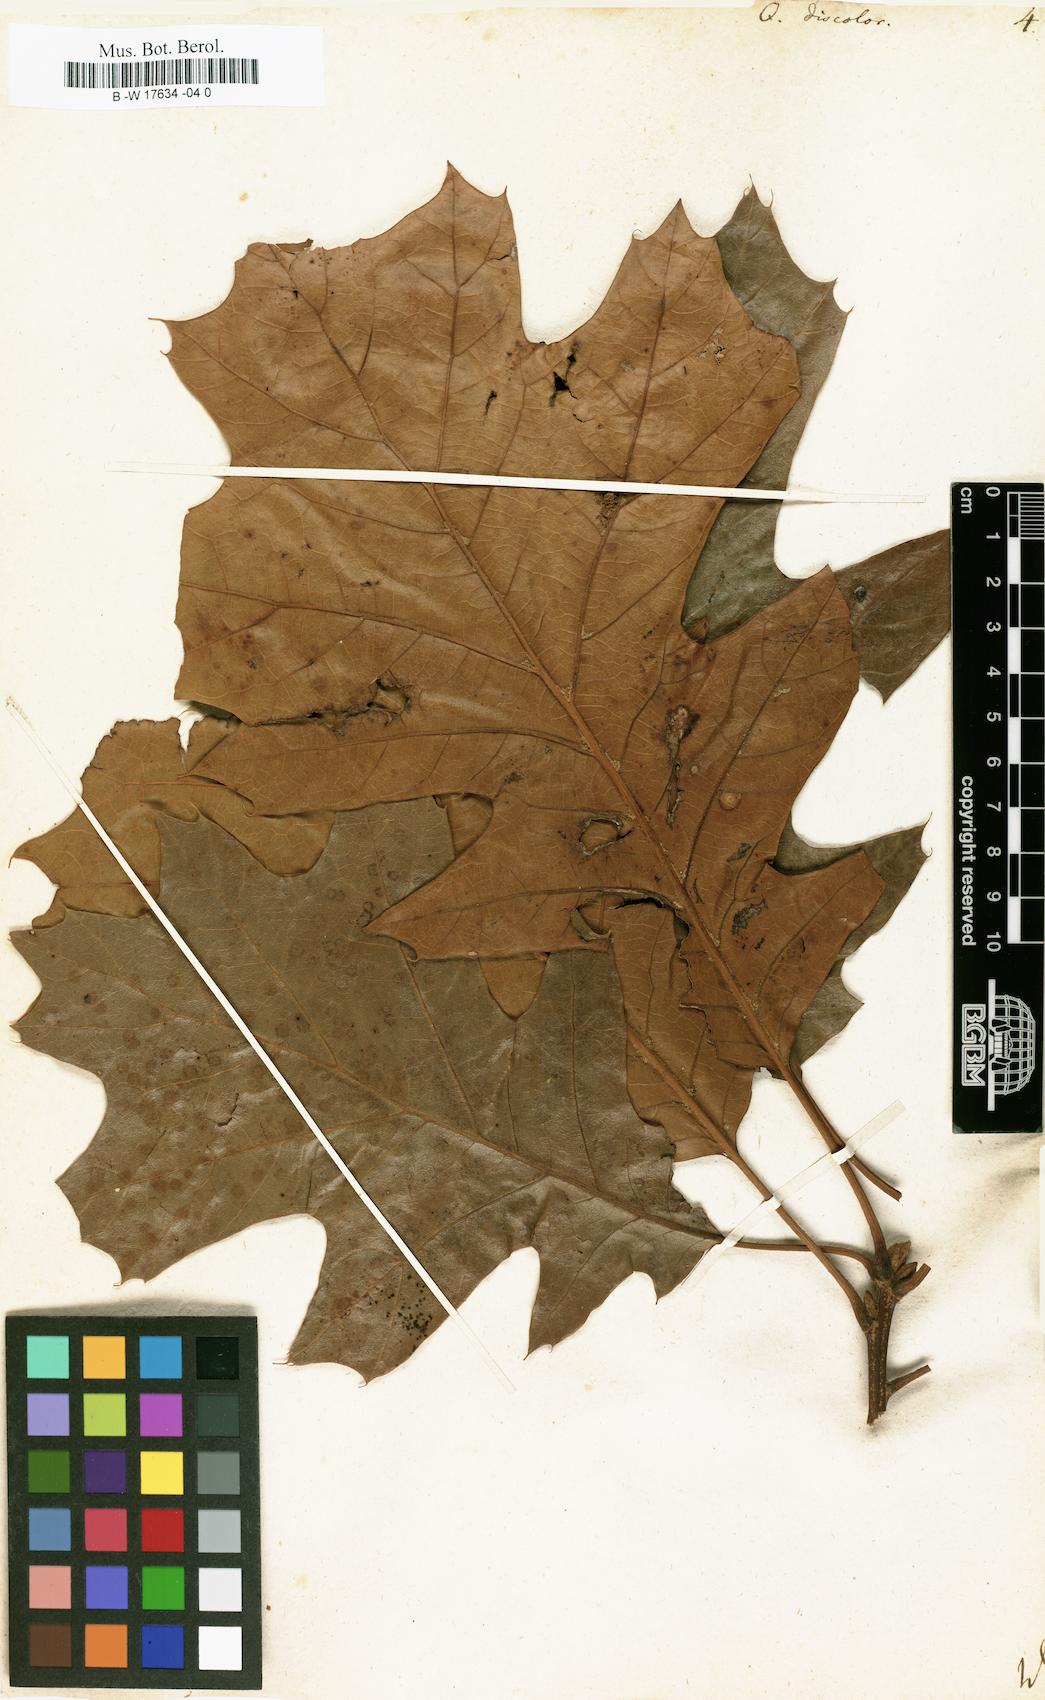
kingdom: Plantae
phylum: Tracheophyta
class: Magnoliopsida
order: Fagales
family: Fagaceae
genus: Quercus
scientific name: Quercus velutina
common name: Black oak
